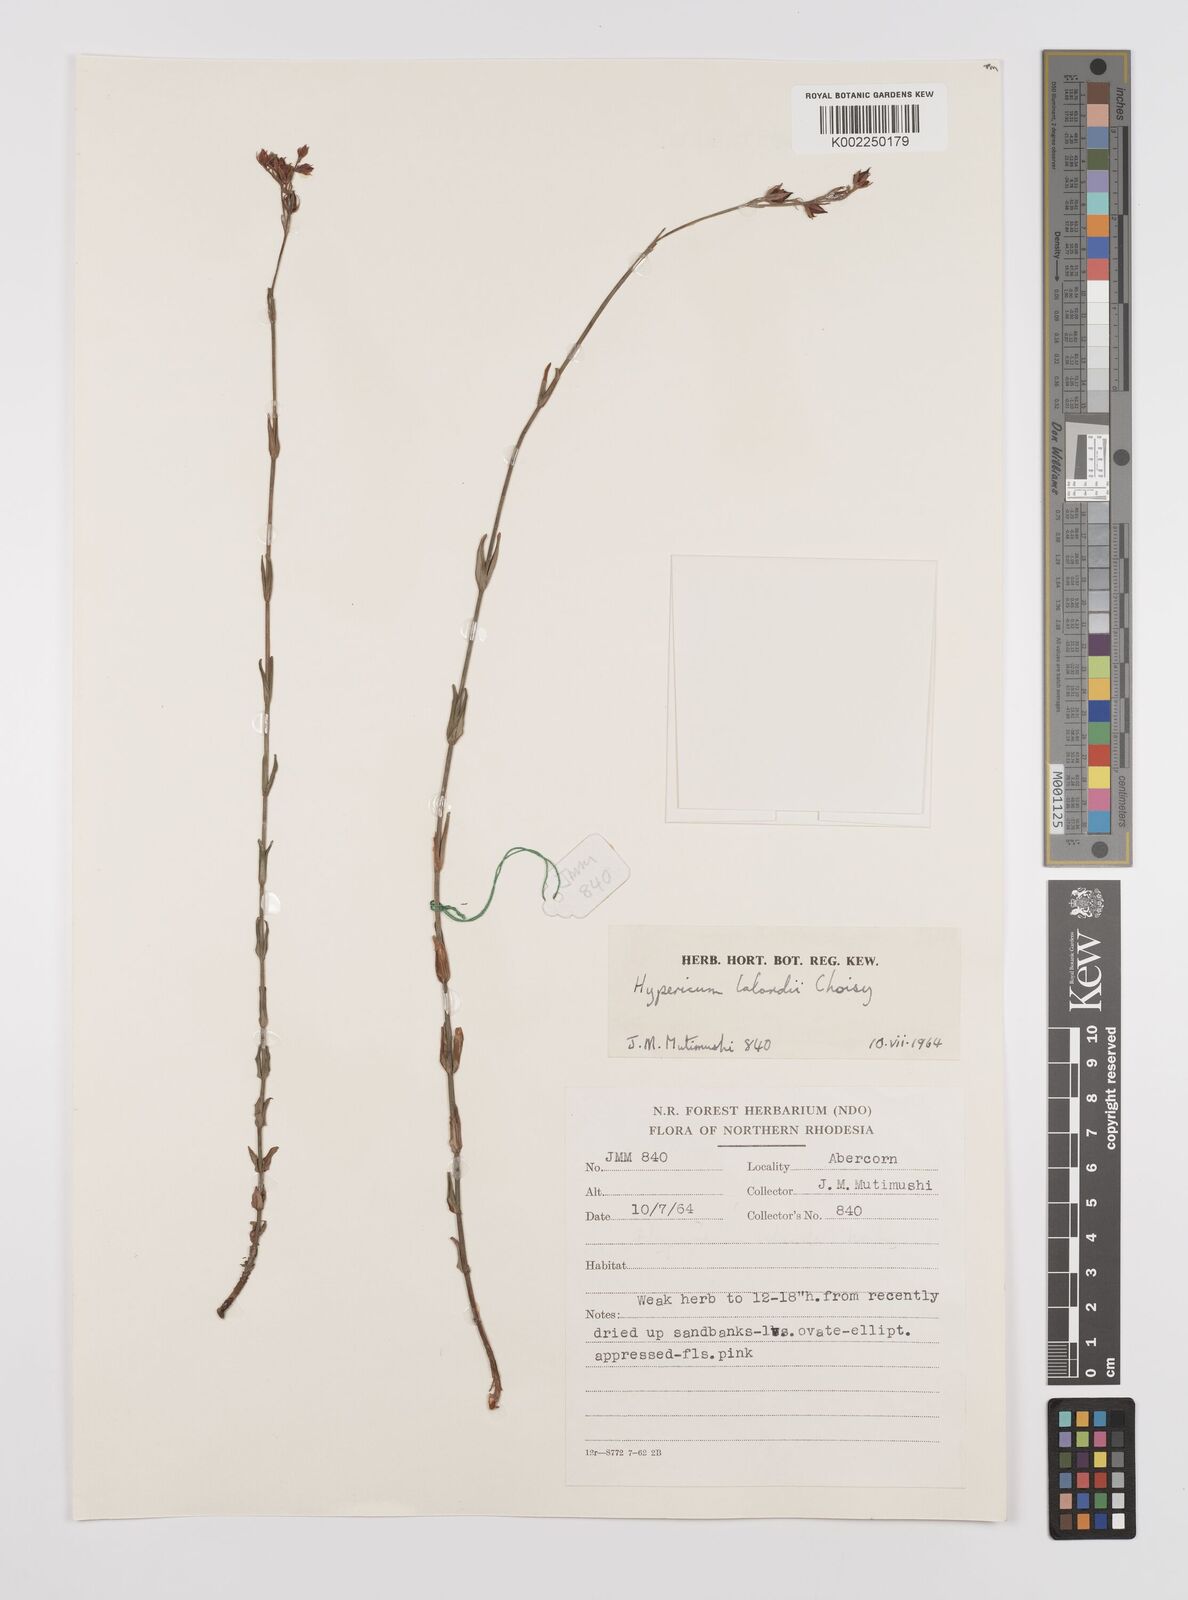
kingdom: Plantae
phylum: Tracheophyta
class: Magnoliopsida
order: Malpighiales
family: Hypericaceae
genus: Hypericum
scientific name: Hypericum lalandii
